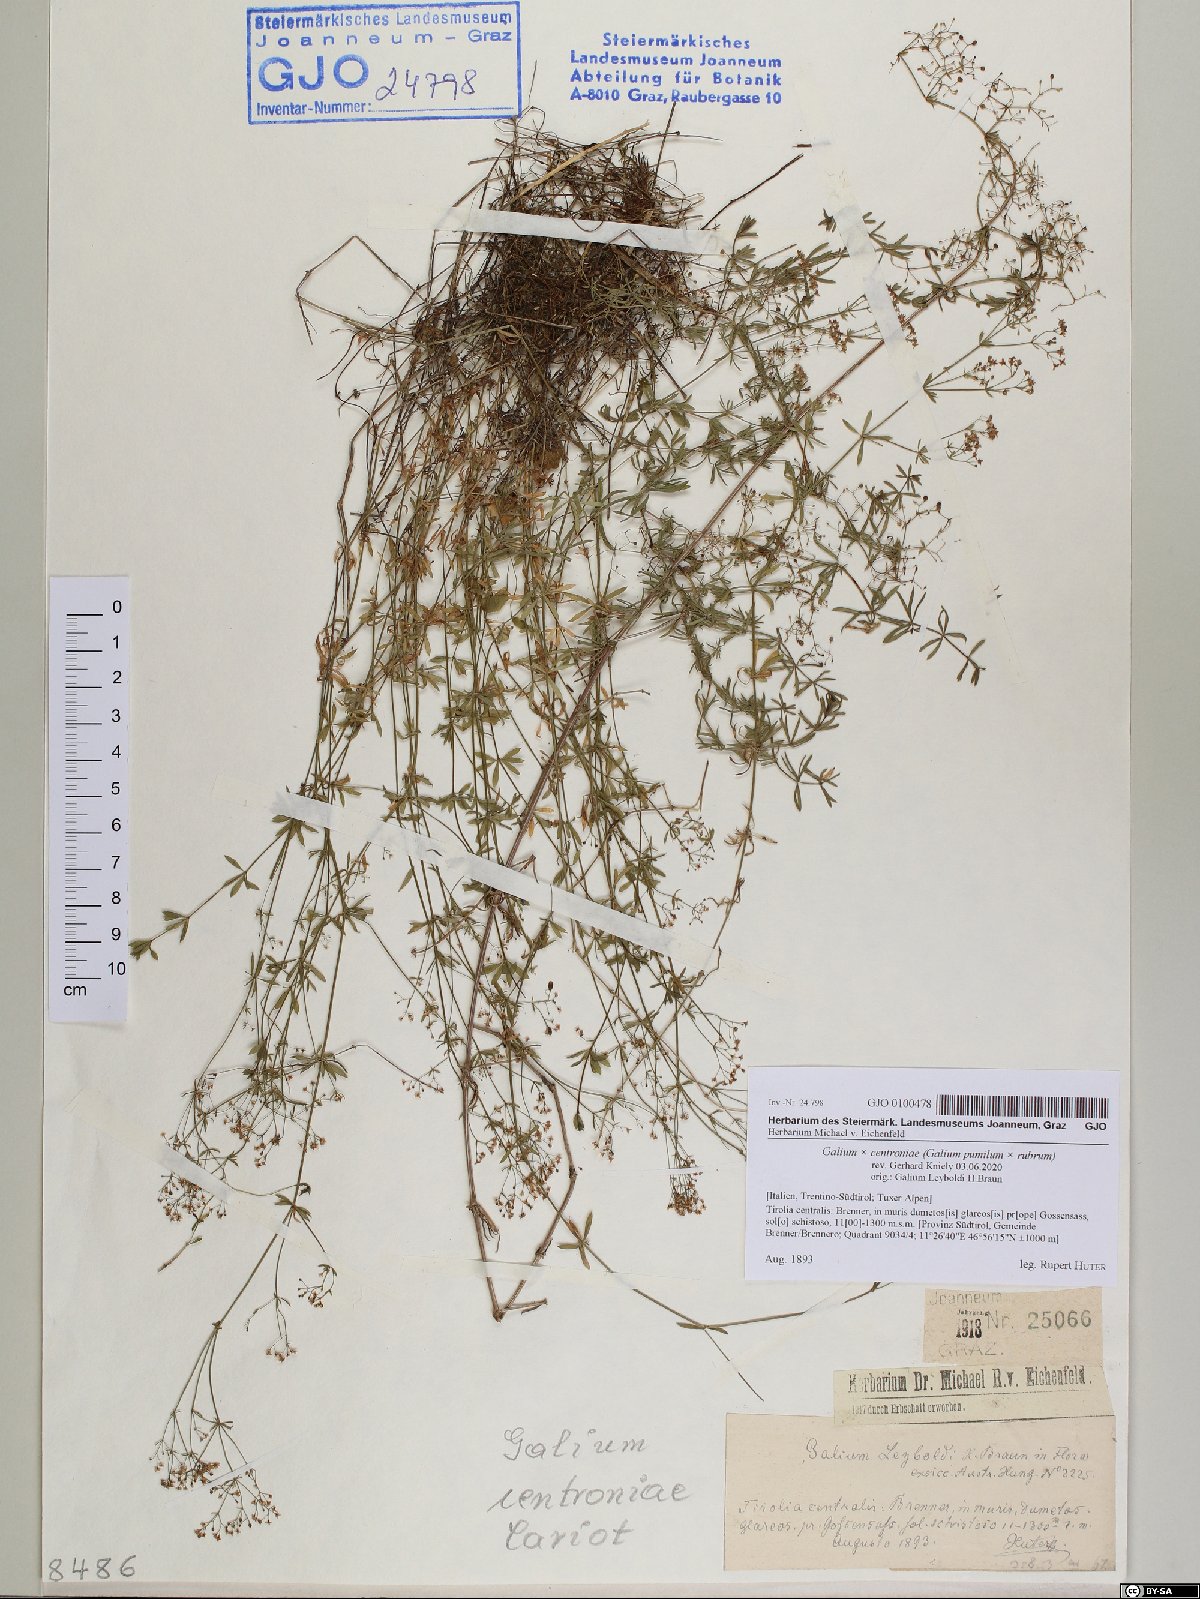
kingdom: Plantae
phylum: Tracheophyta
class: Magnoliopsida
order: Gentianales
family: Rubiaceae
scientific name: Rubiaceae
